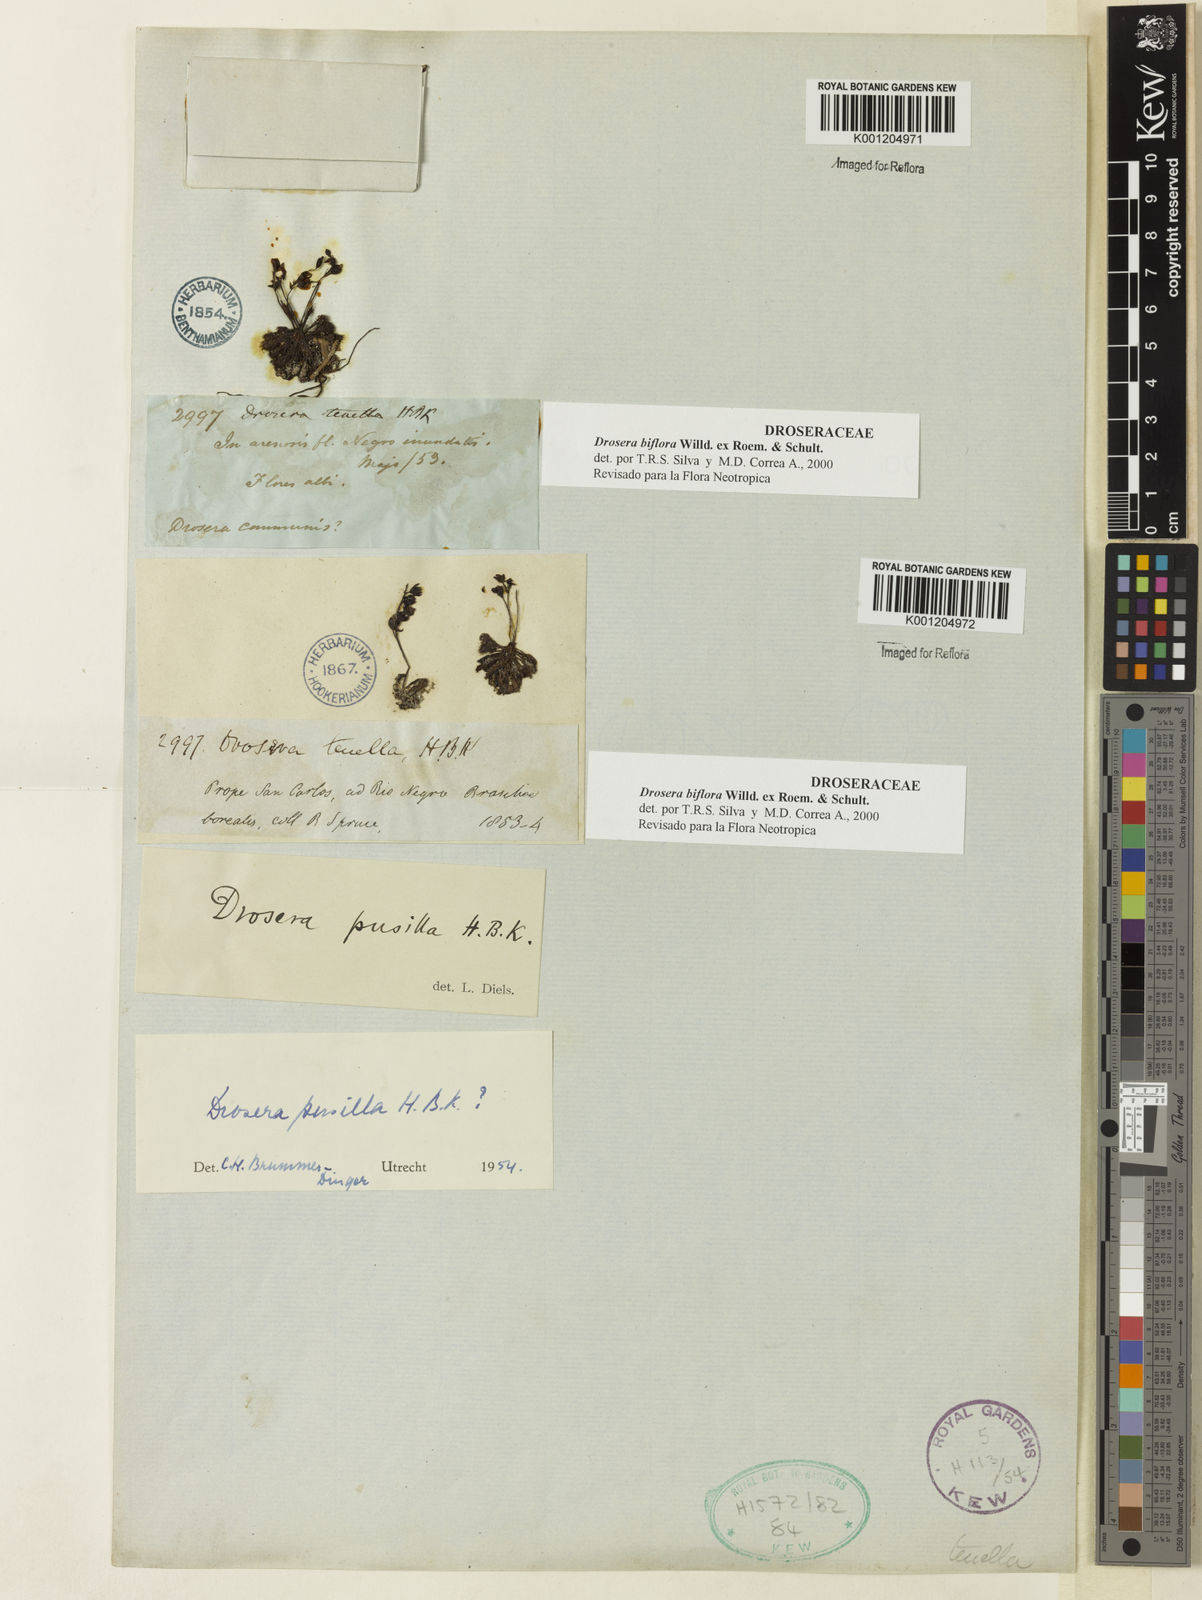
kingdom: Plantae
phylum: Tracheophyta
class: Magnoliopsida
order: Caryophyllales
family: Droseraceae
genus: Drosera
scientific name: Drosera biflora
